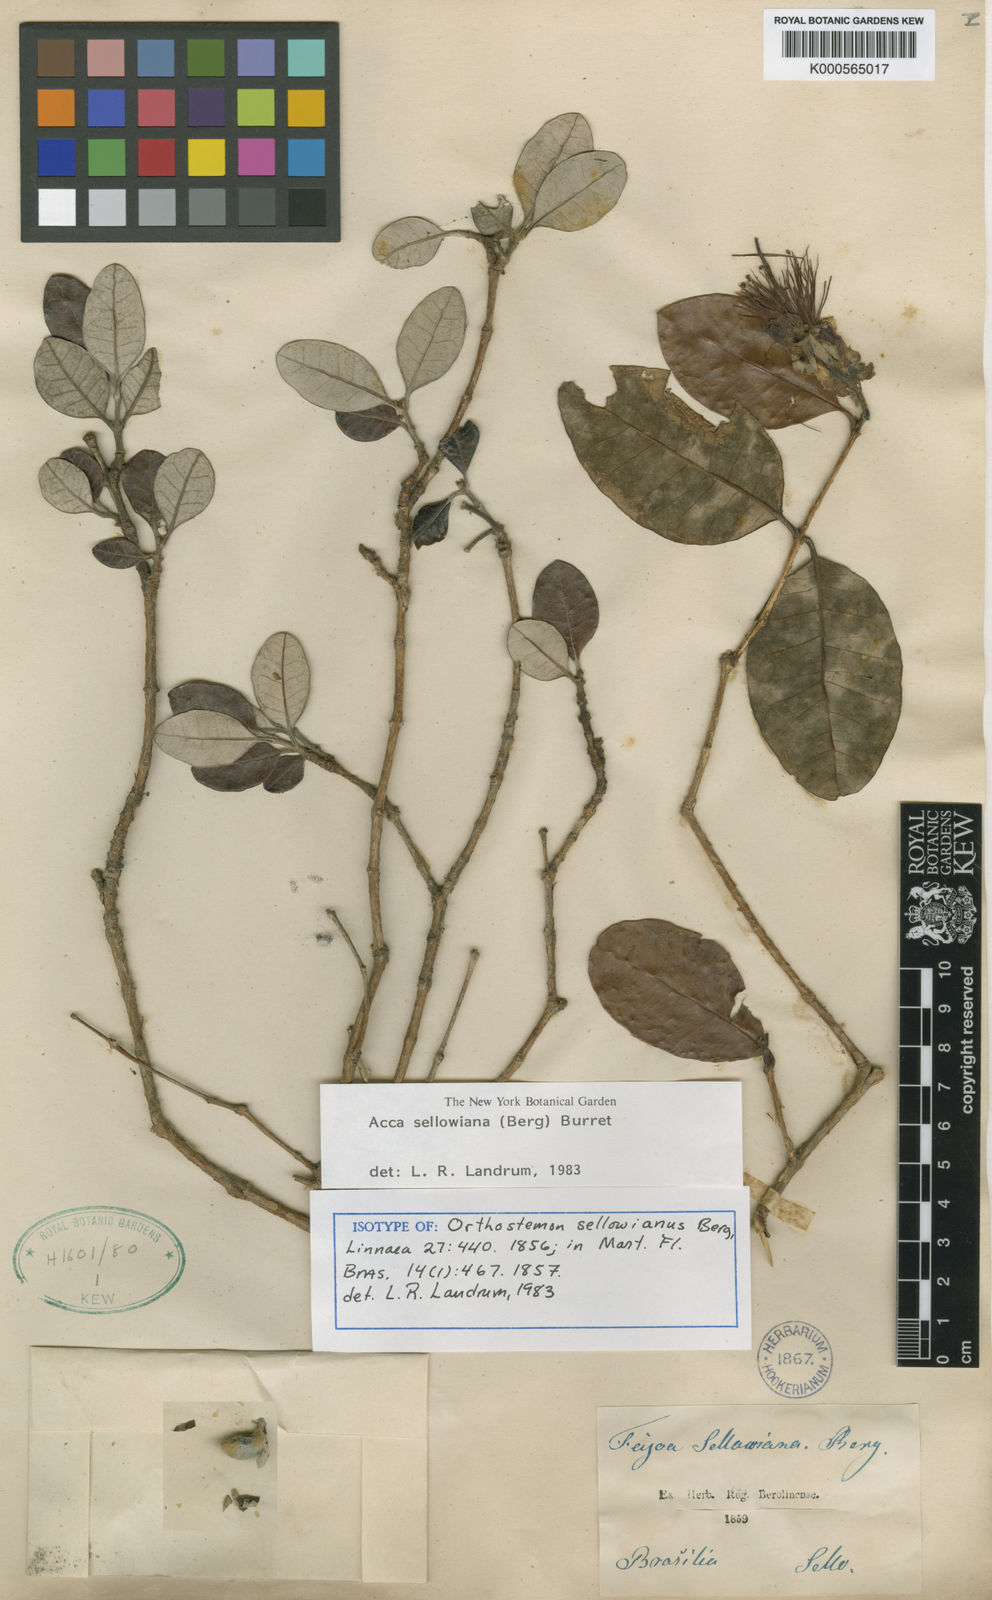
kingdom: Plantae
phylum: Tracheophyta
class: Magnoliopsida
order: Myrtales
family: Myrtaceae
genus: Feijoa
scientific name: Feijoa sellowiana
